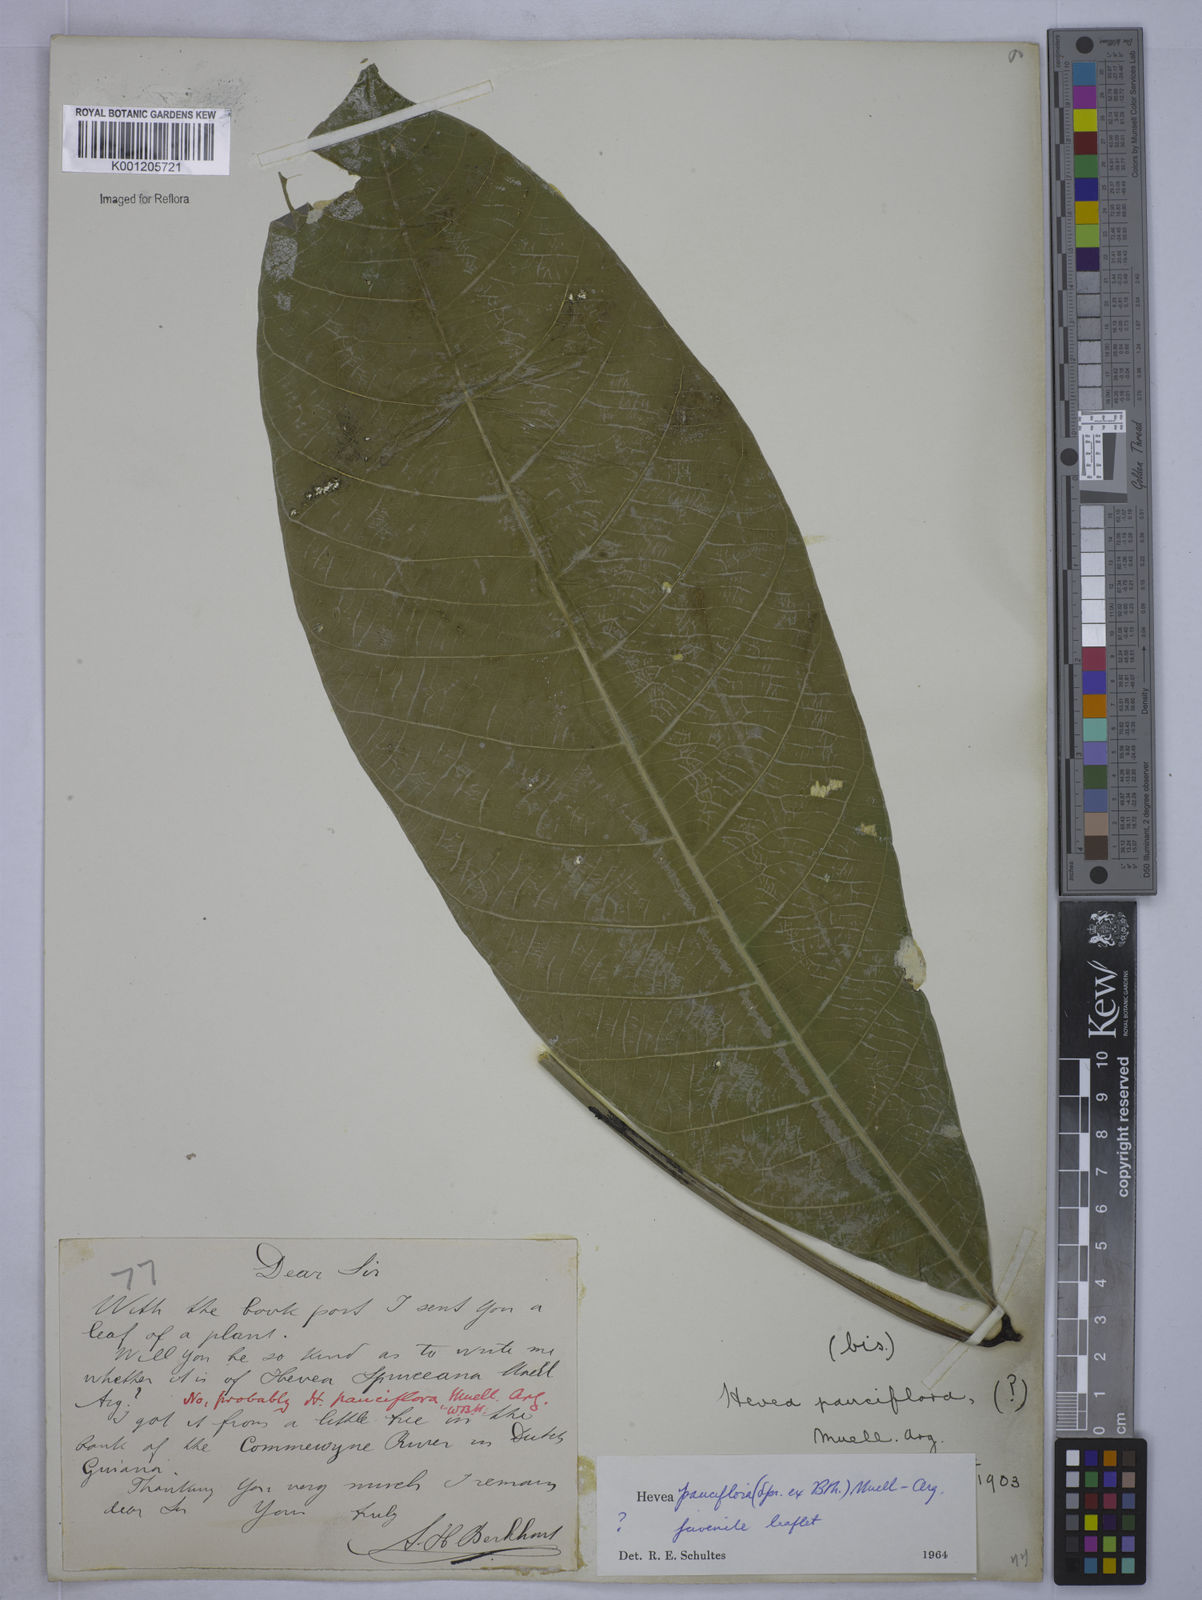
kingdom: Plantae
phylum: Tracheophyta
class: Magnoliopsida
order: Malpighiales
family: Euphorbiaceae
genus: Hevea
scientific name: Hevea
